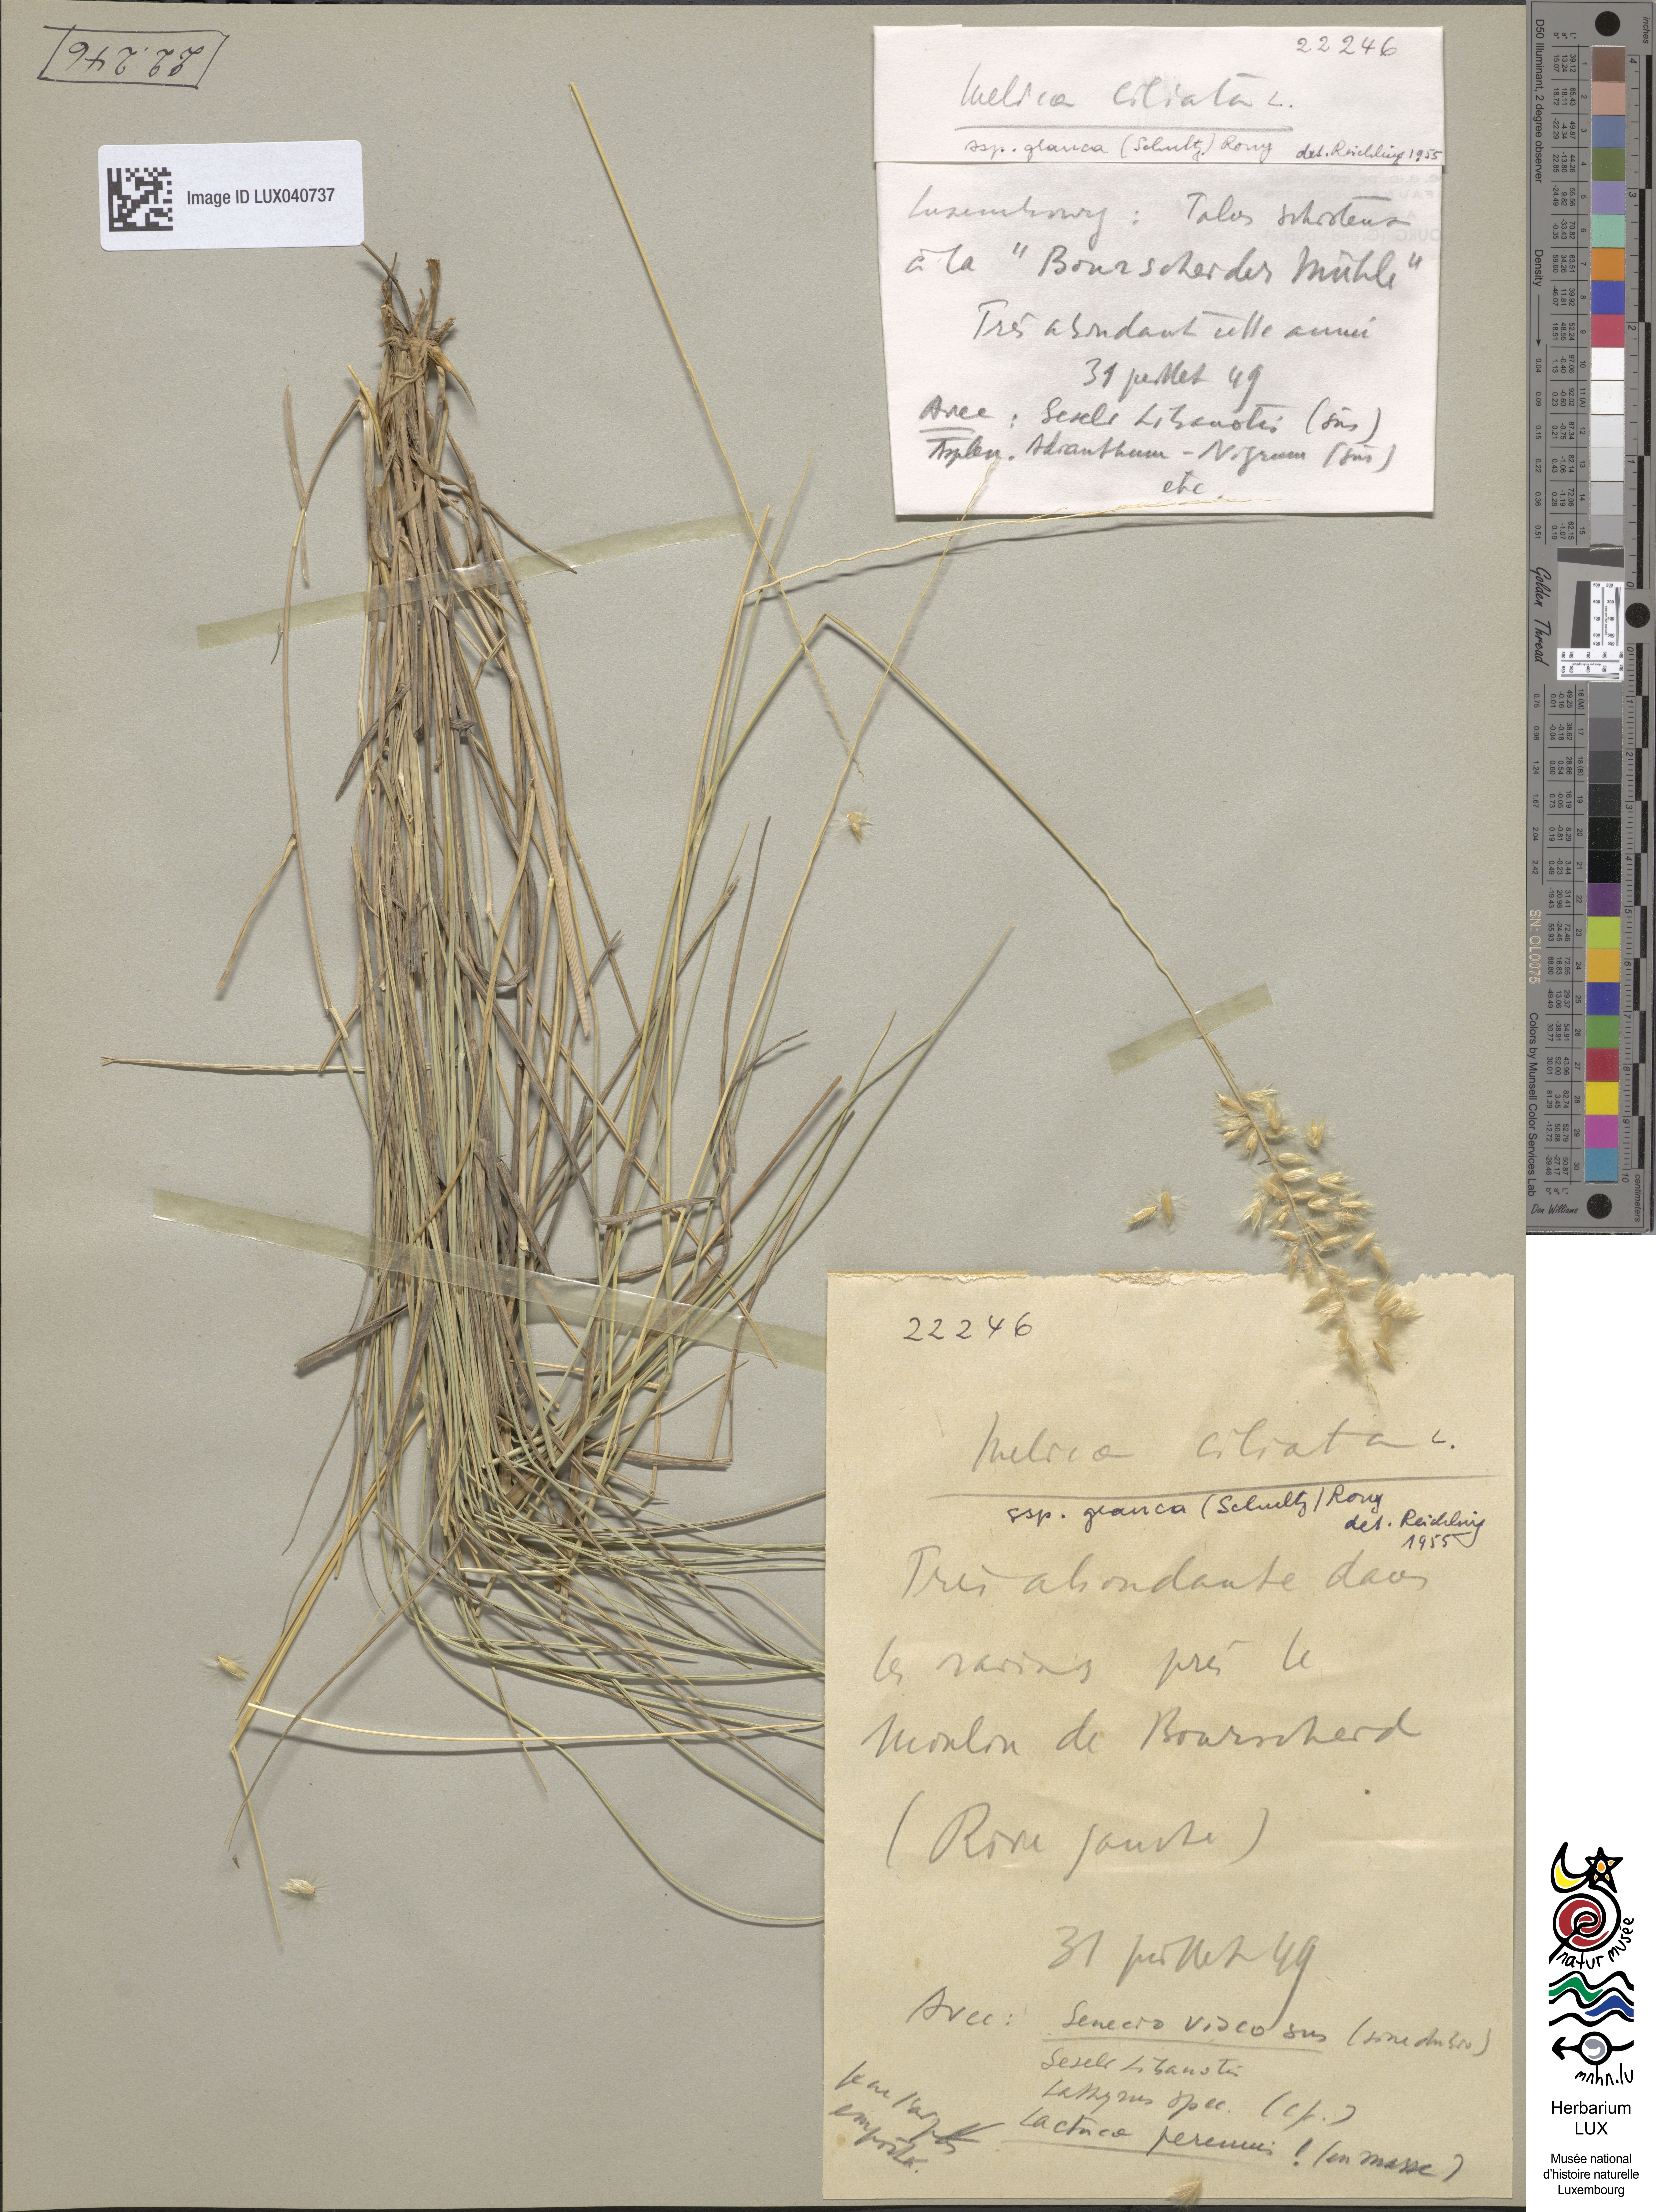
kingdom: Plantae
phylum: Tracheophyta
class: Liliopsida
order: Poales
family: Poaceae
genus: Melica
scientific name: Melica ciliata
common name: Hairy melicgrass
